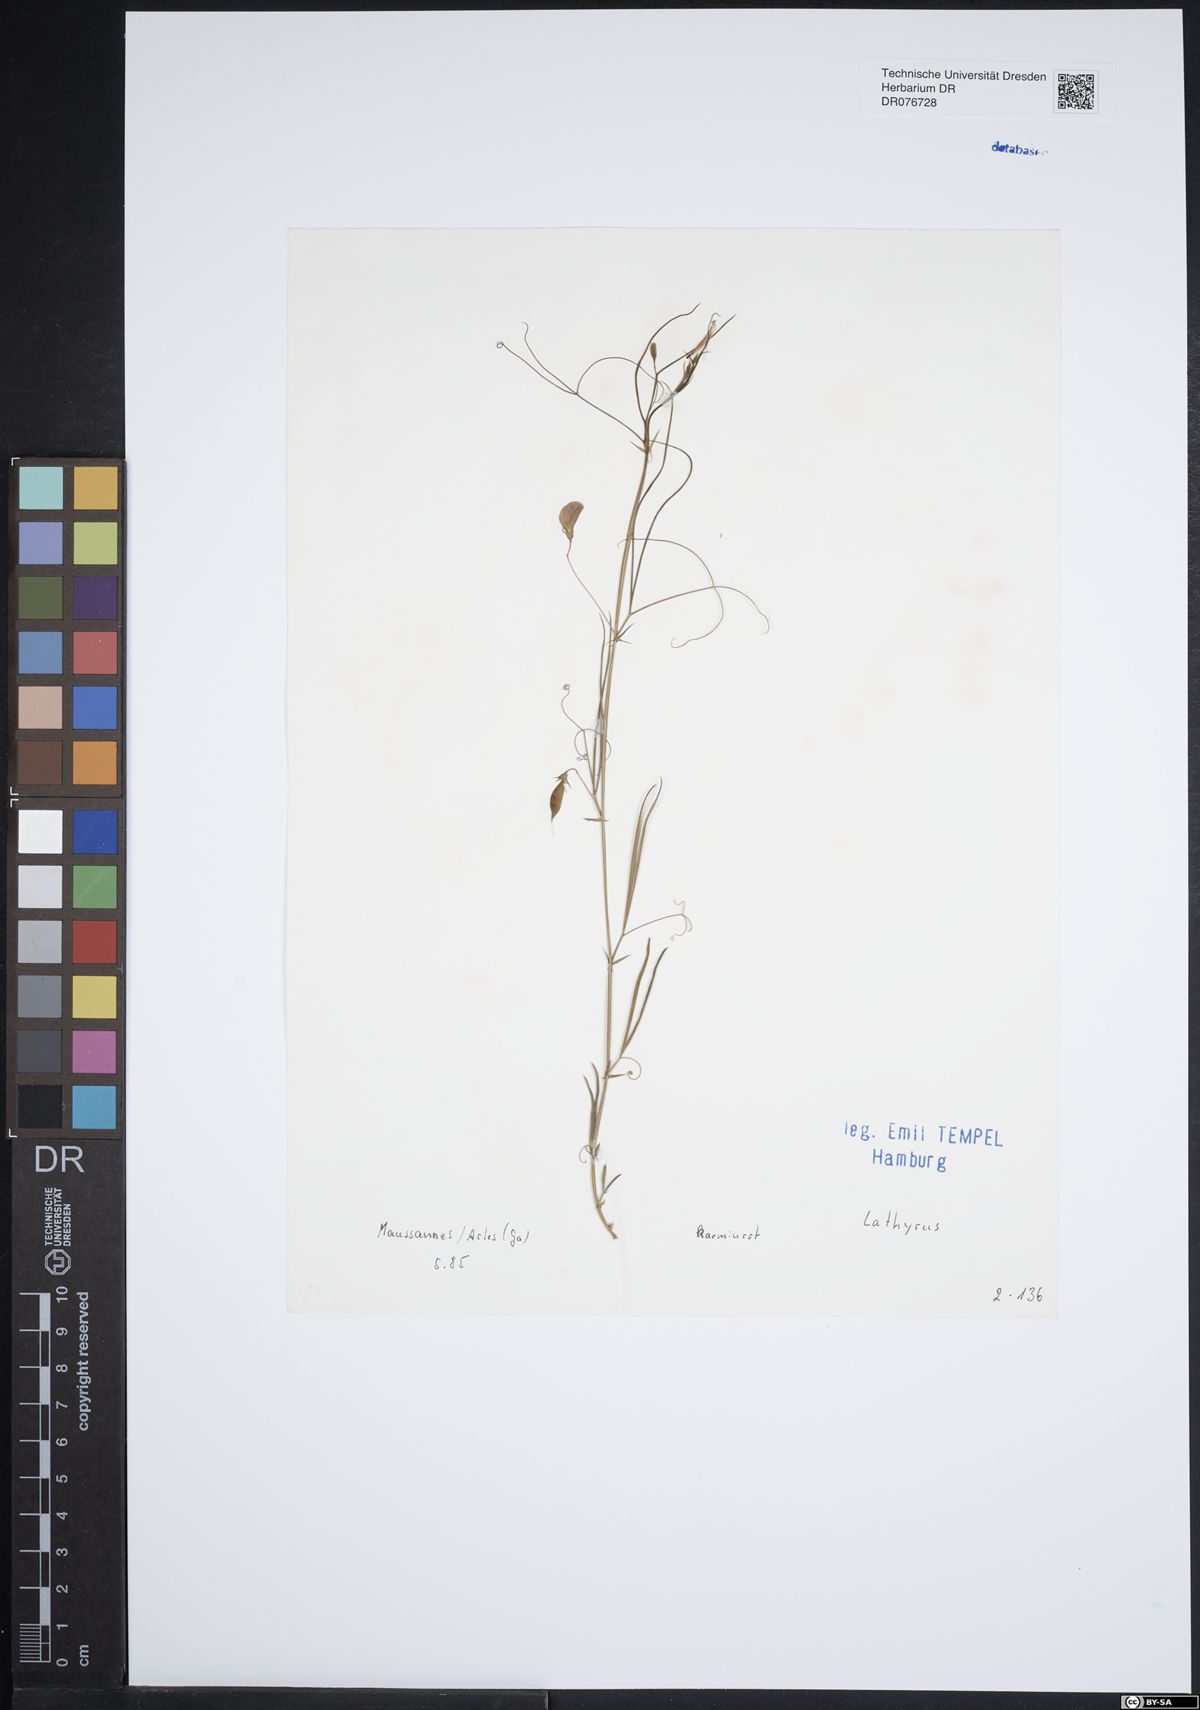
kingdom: Plantae
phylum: Tracheophyta
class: Magnoliopsida
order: Fabales
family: Fabaceae
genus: Lathyrus
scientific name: Lathyrus
